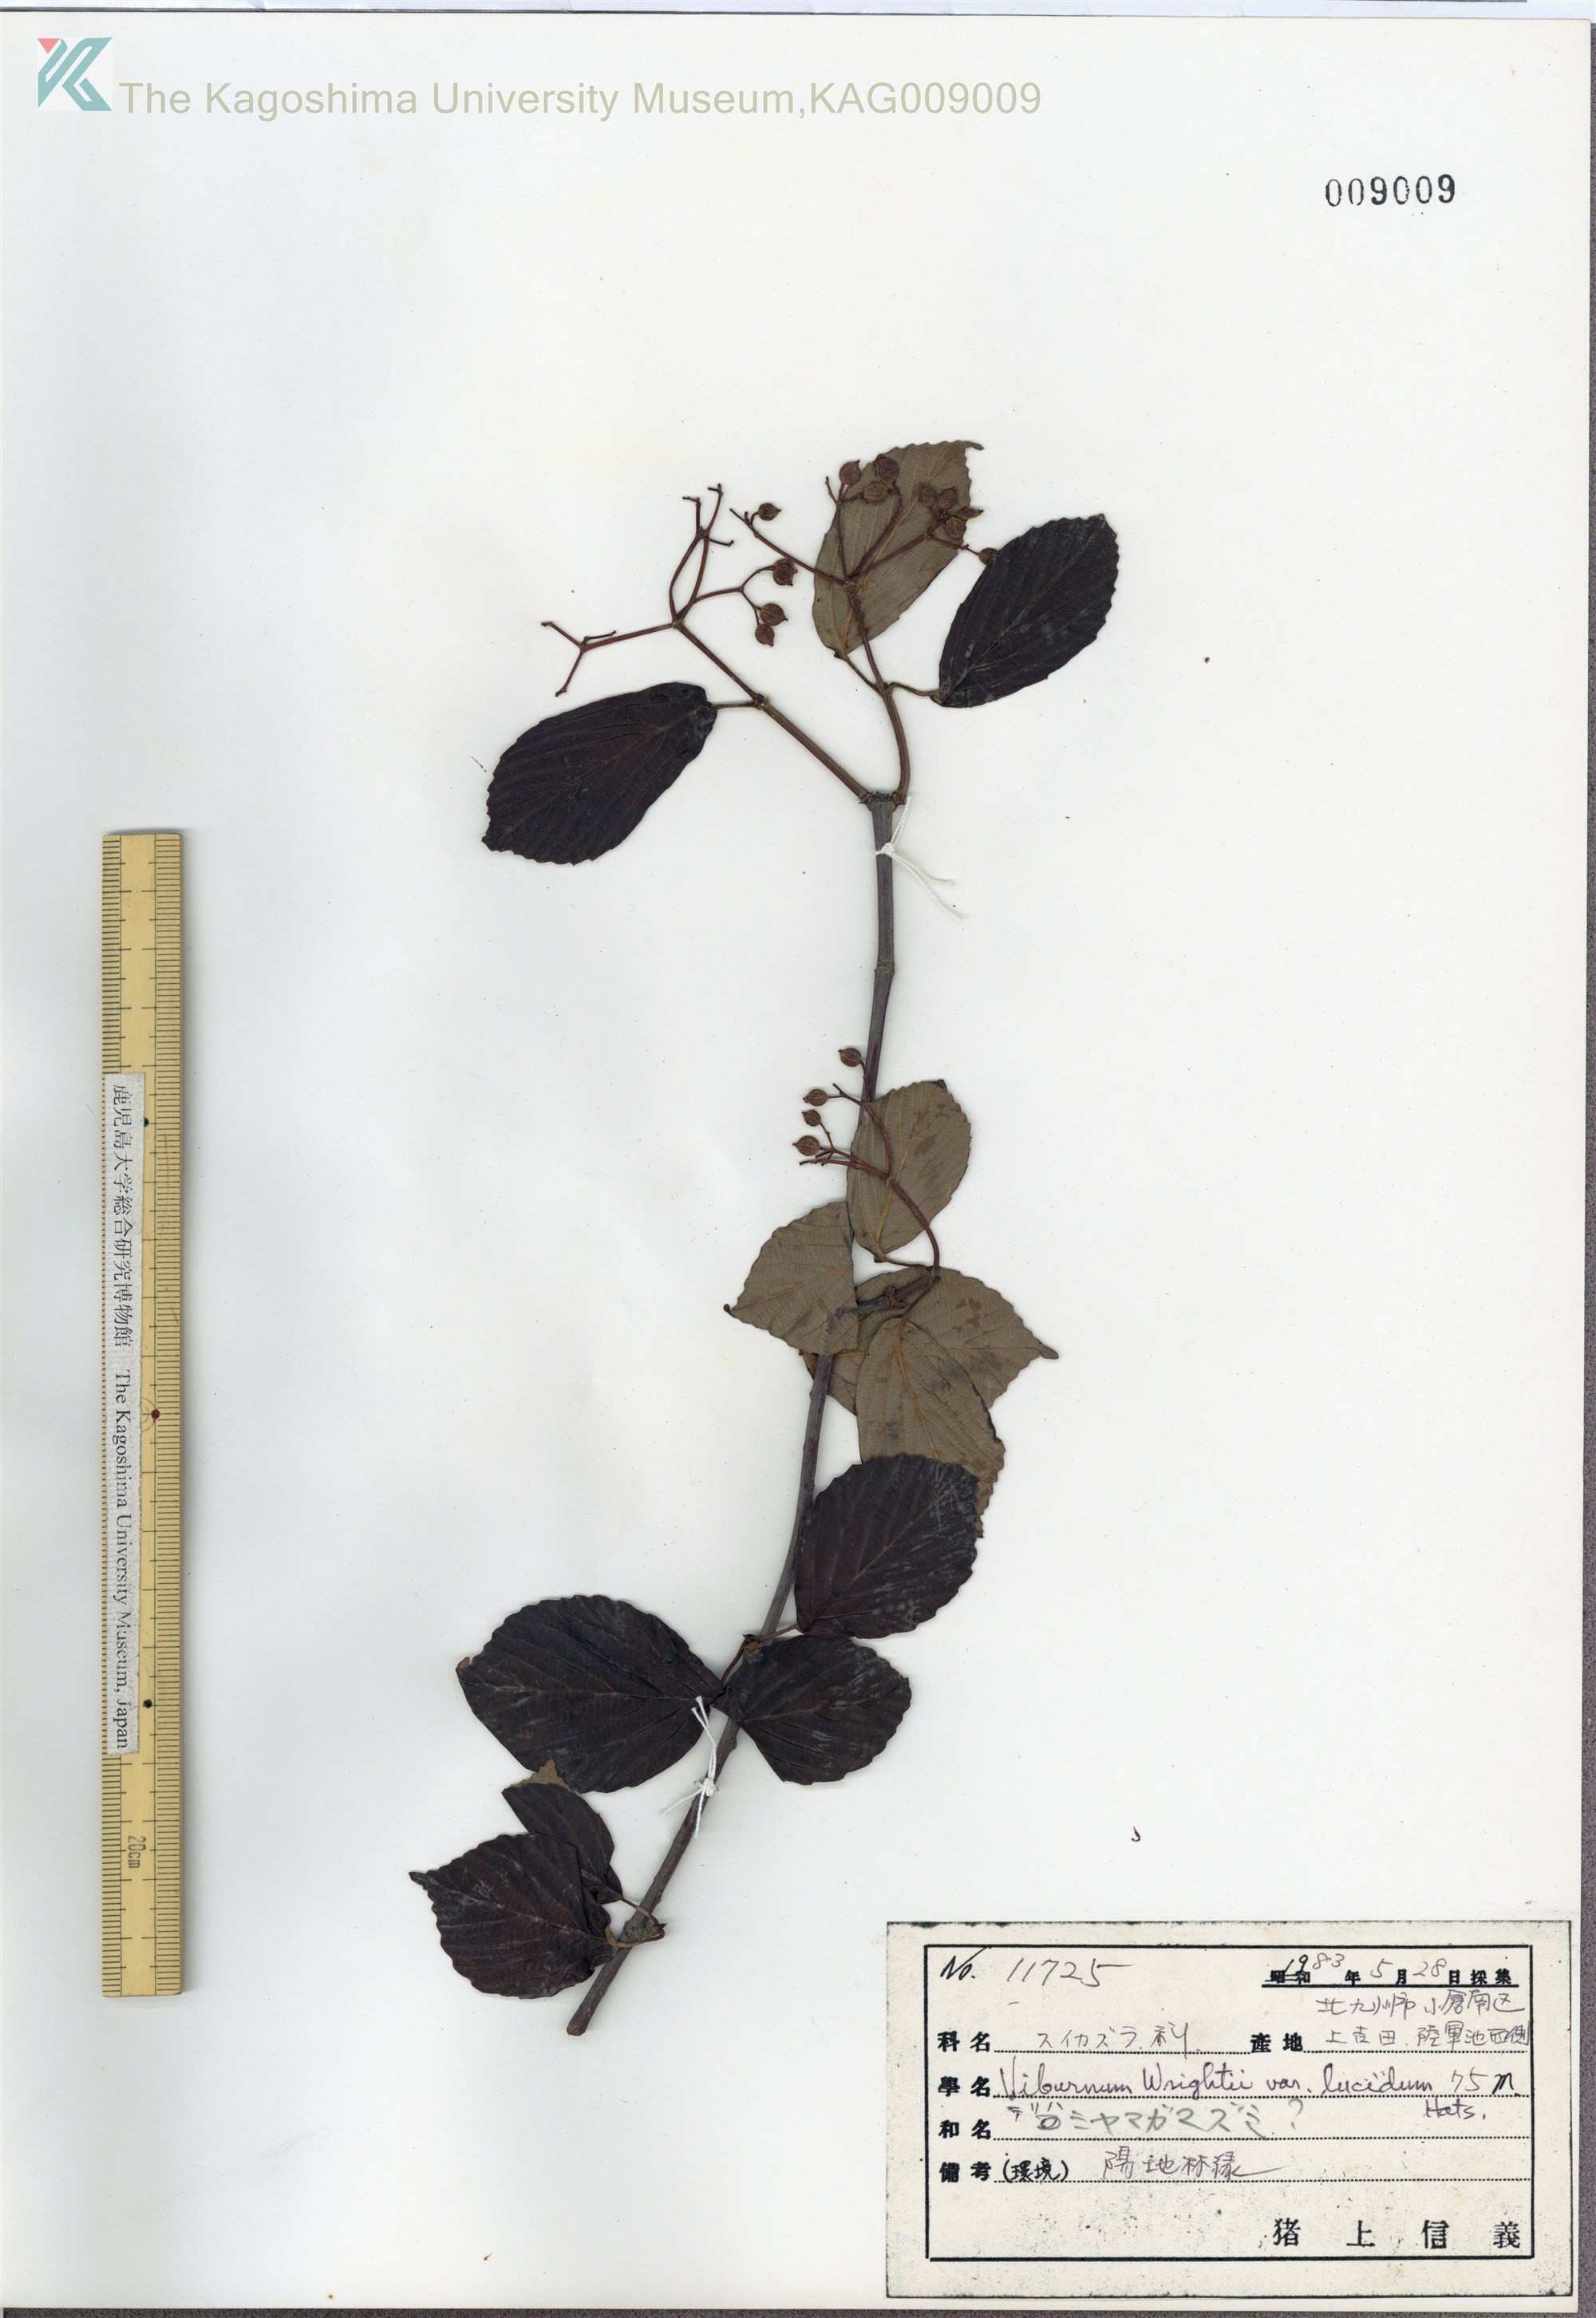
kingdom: Plantae
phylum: Tracheophyta
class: Magnoliopsida
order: Dipsacales
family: Viburnaceae
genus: Viburnum
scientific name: Viburnum wrightii
